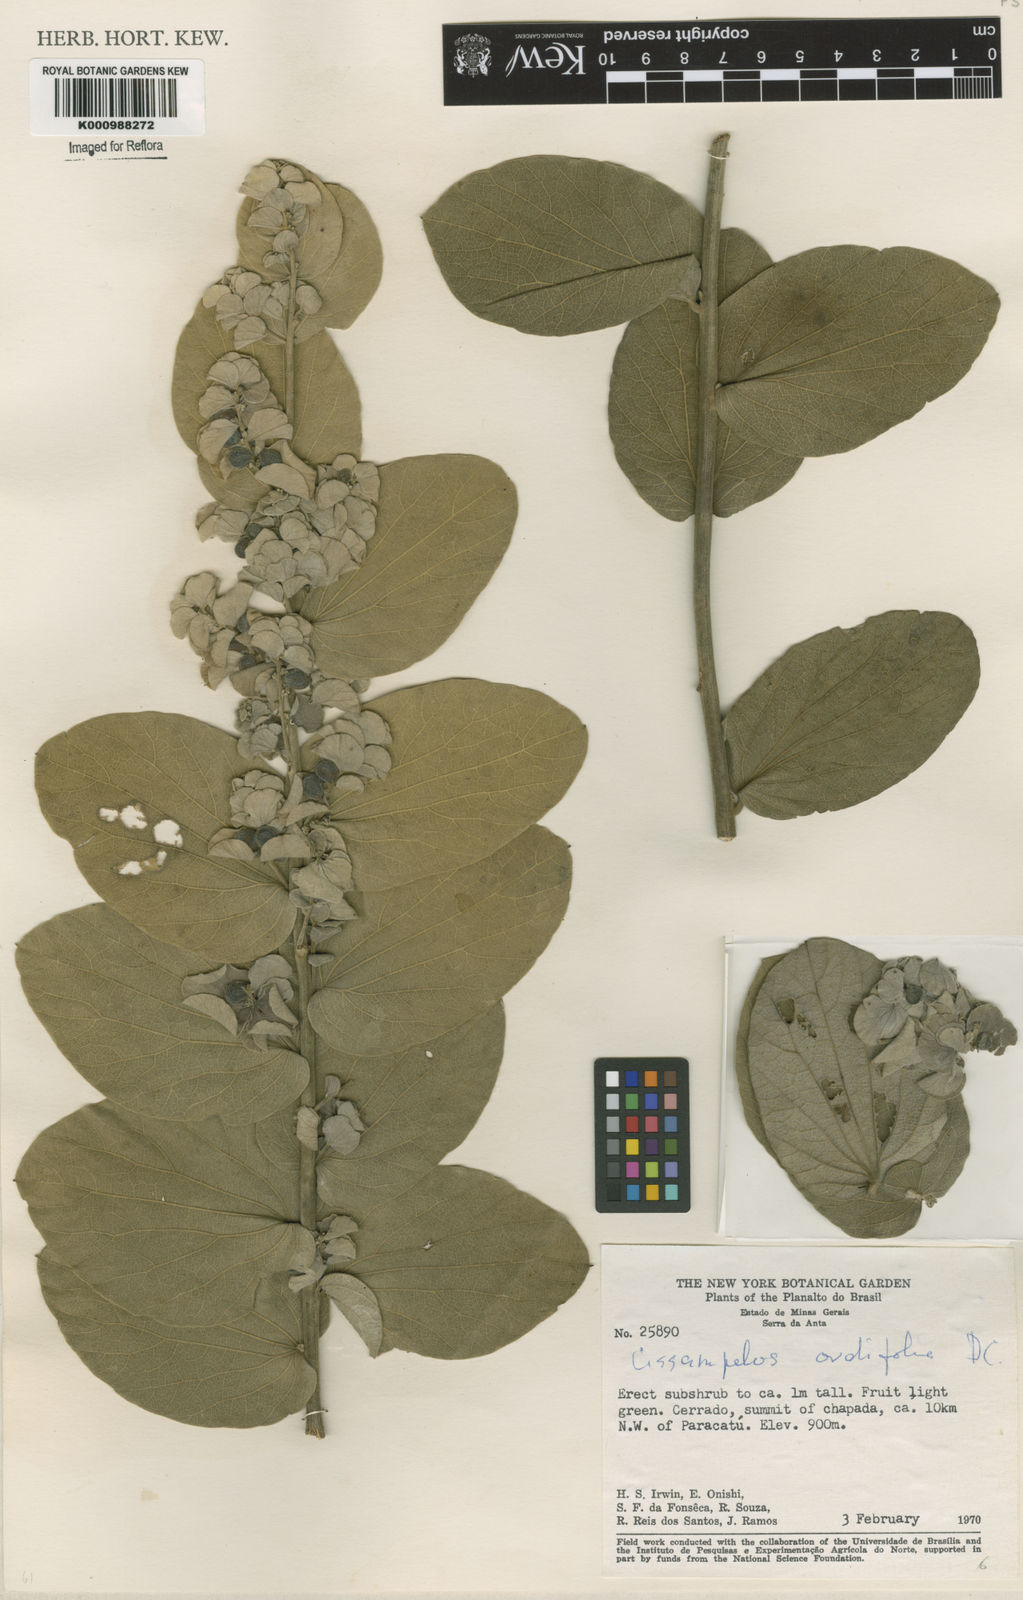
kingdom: Plantae
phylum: Tracheophyta
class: Magnoliopsida
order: Ranunculales
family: Menispermaceae
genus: Cissampelos
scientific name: Cissampelos ovalifolia
